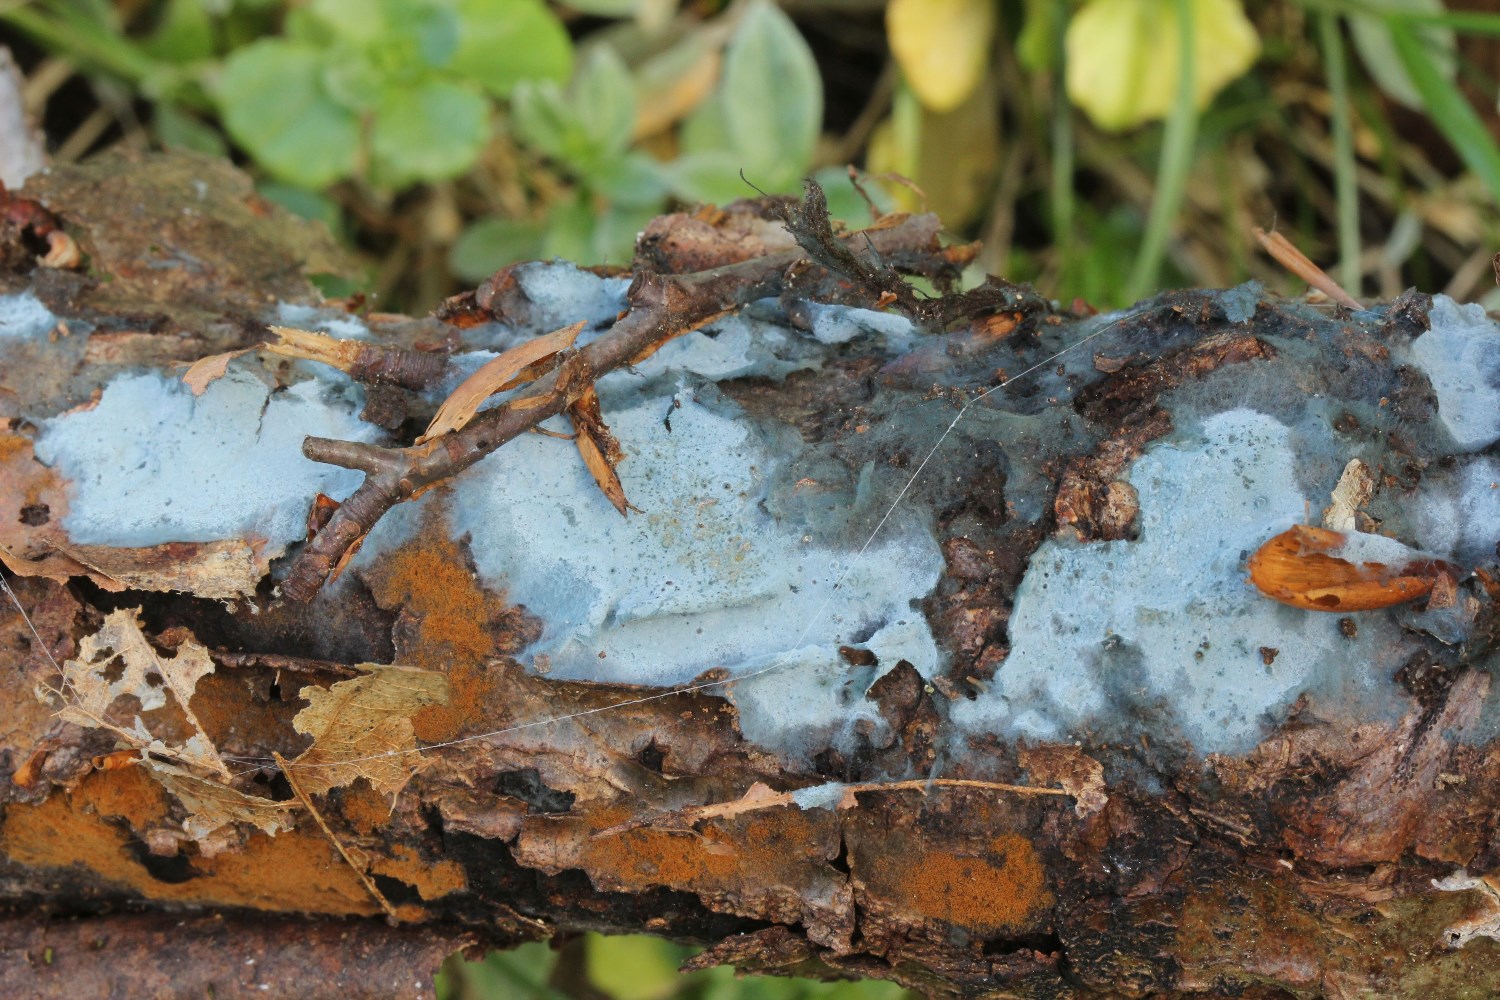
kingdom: Fungi
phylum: Basidiomycota
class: Agaricomycetes
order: Atheliales
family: Atheliaceae
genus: Byssocorticium
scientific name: Byssocorticium atrovirens
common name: blå førnehinde
